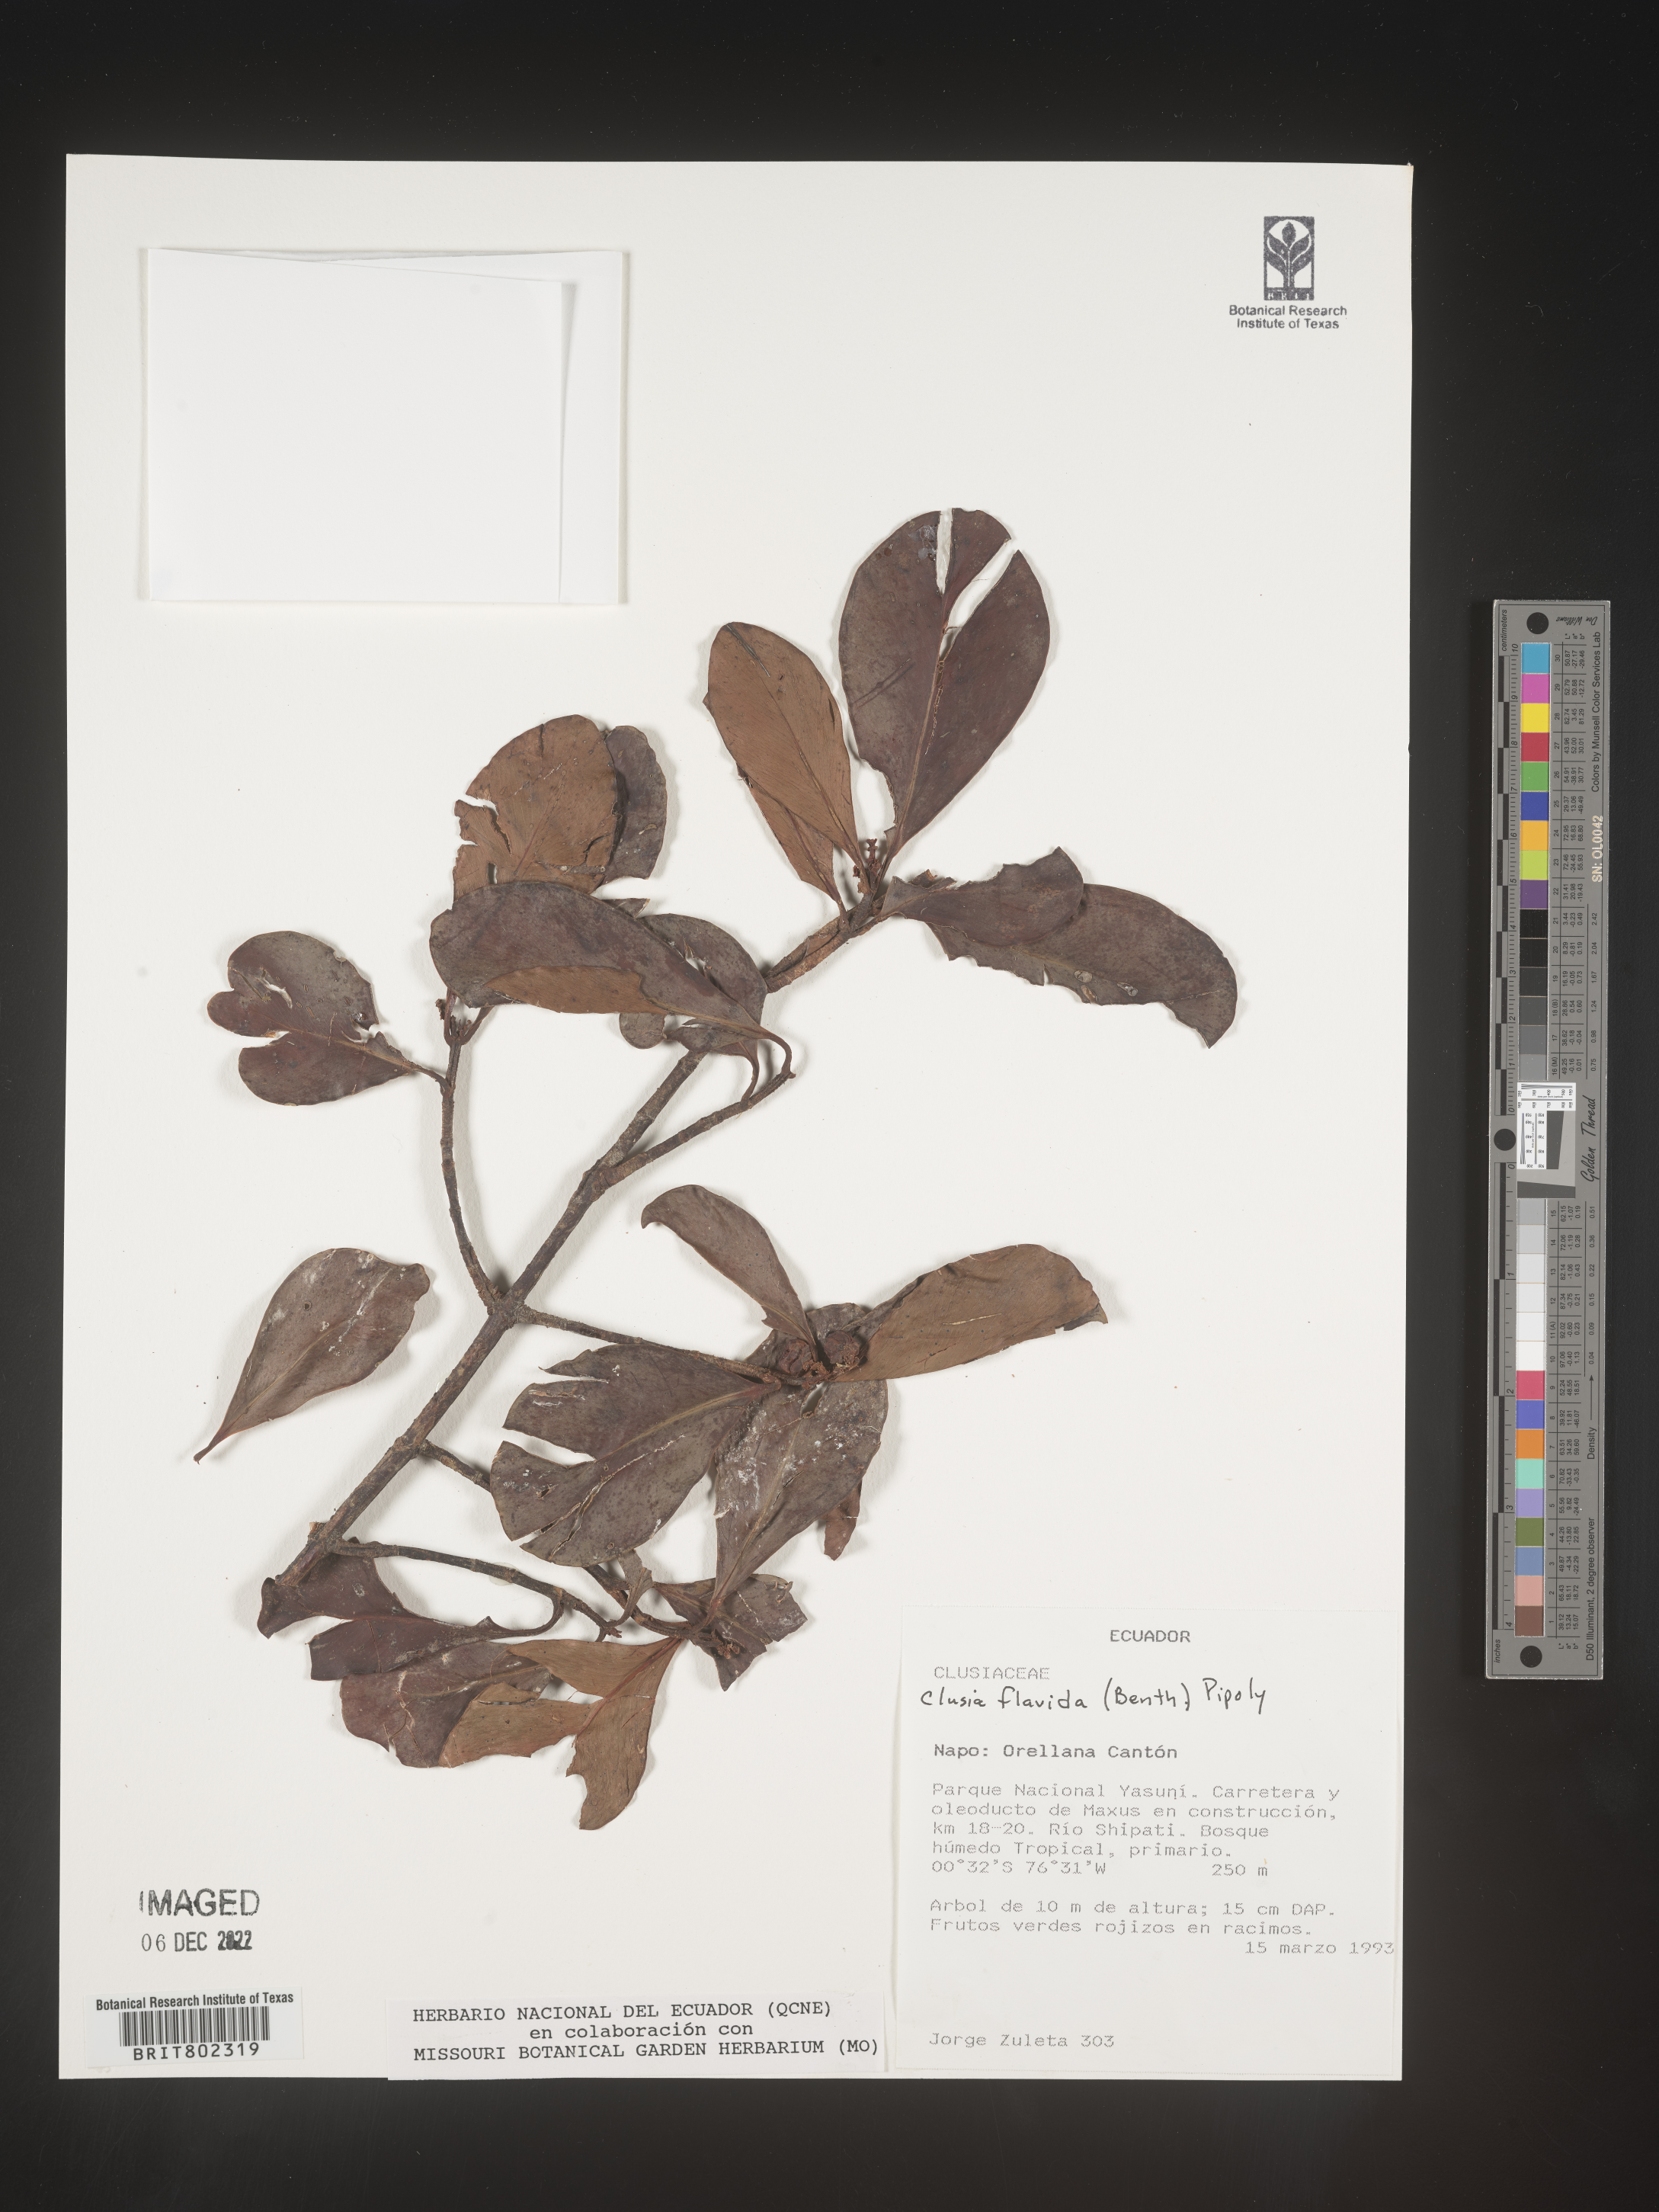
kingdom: Plantae
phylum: Tracheophyta
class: Magnoliopsida
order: Malpighiales
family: Clusiaceae
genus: Clusia
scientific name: Clusia flavida
